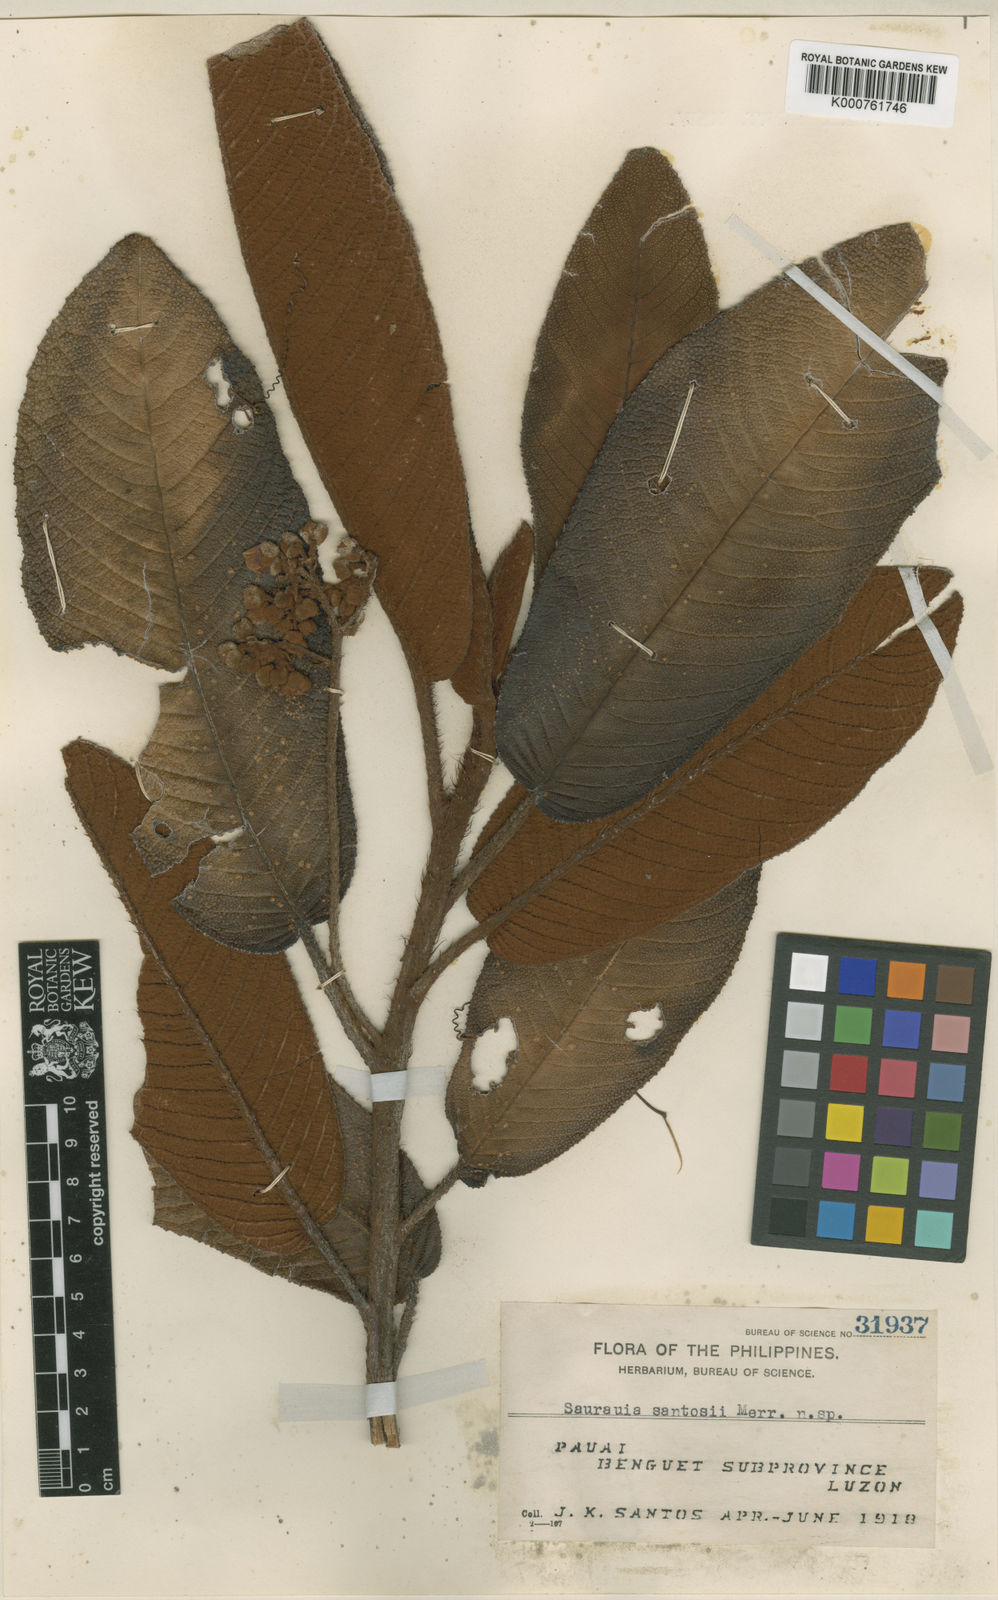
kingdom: Plantae
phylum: Tracheophyta
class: Magnoliopsida
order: Ericales
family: Actinidiaceae
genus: Saurauia
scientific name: Saurauia elegans
